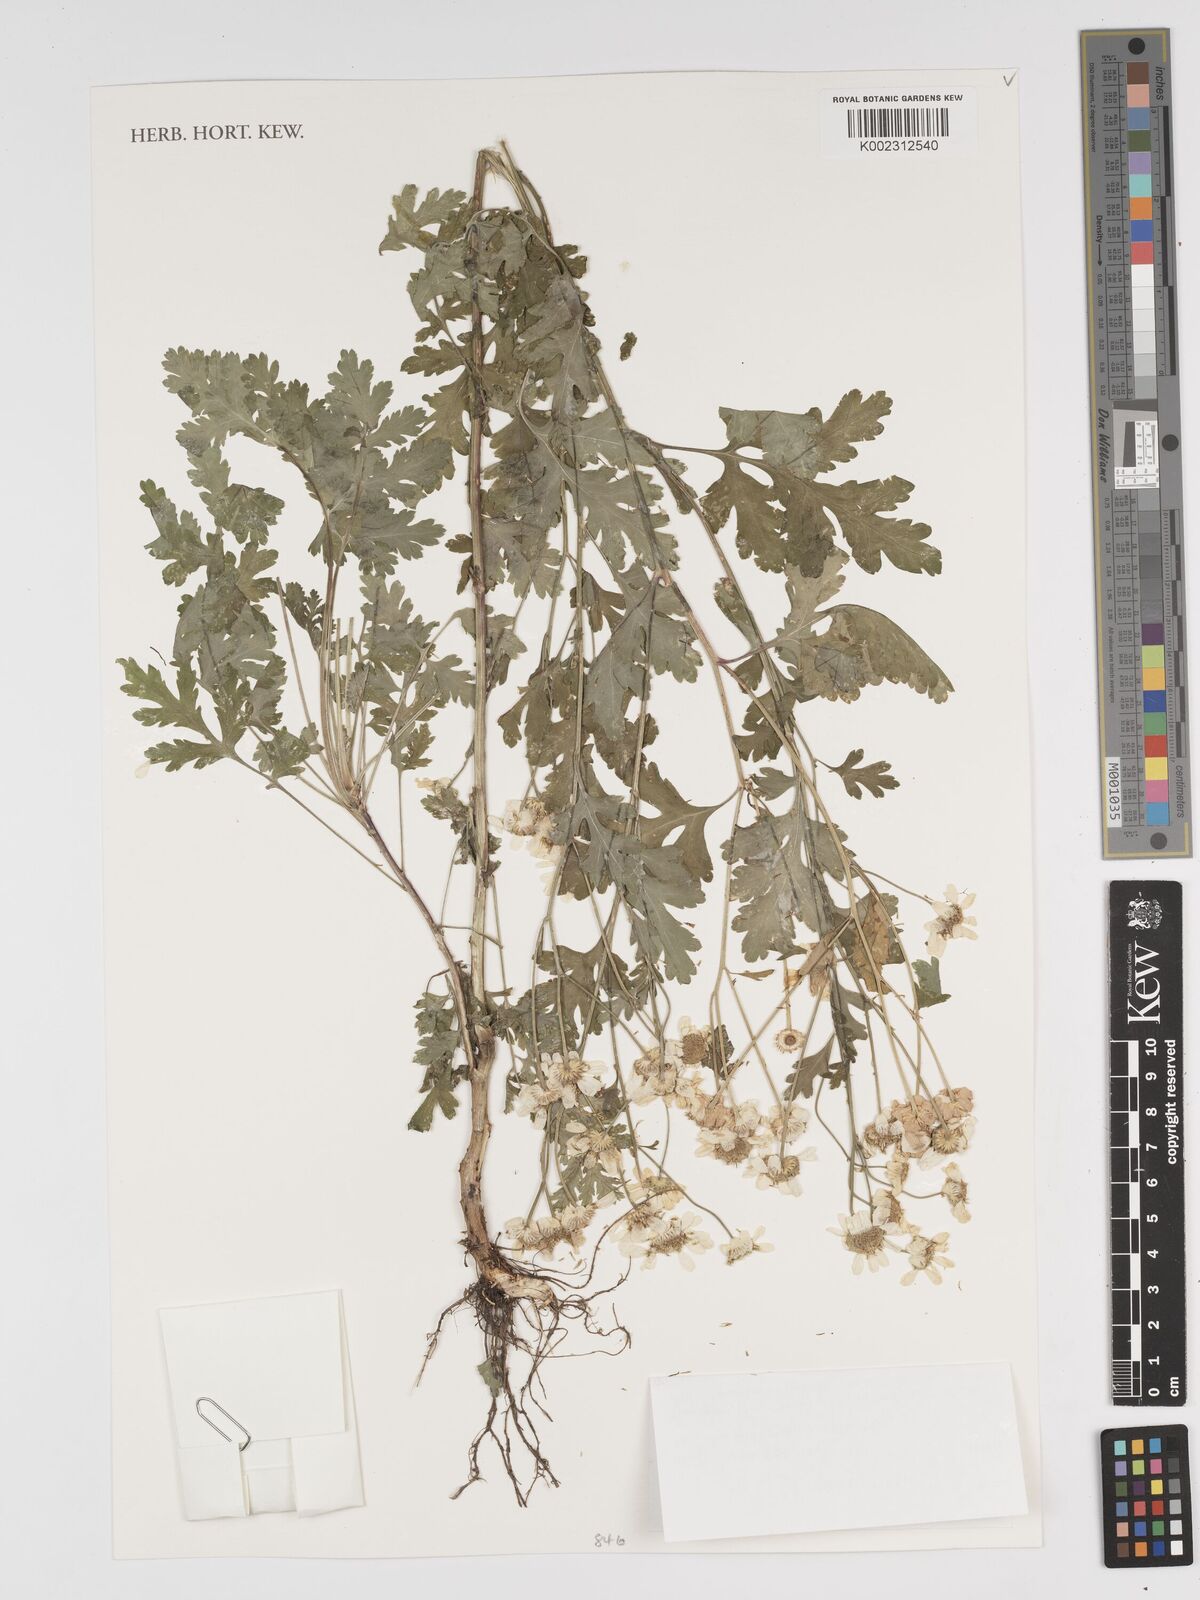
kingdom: Plantae
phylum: Tracheophyta
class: Magnoliopsida
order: Asterales
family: Asteraceae
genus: Tanacetum
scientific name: Tanacetum parthenium
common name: Feverfew
